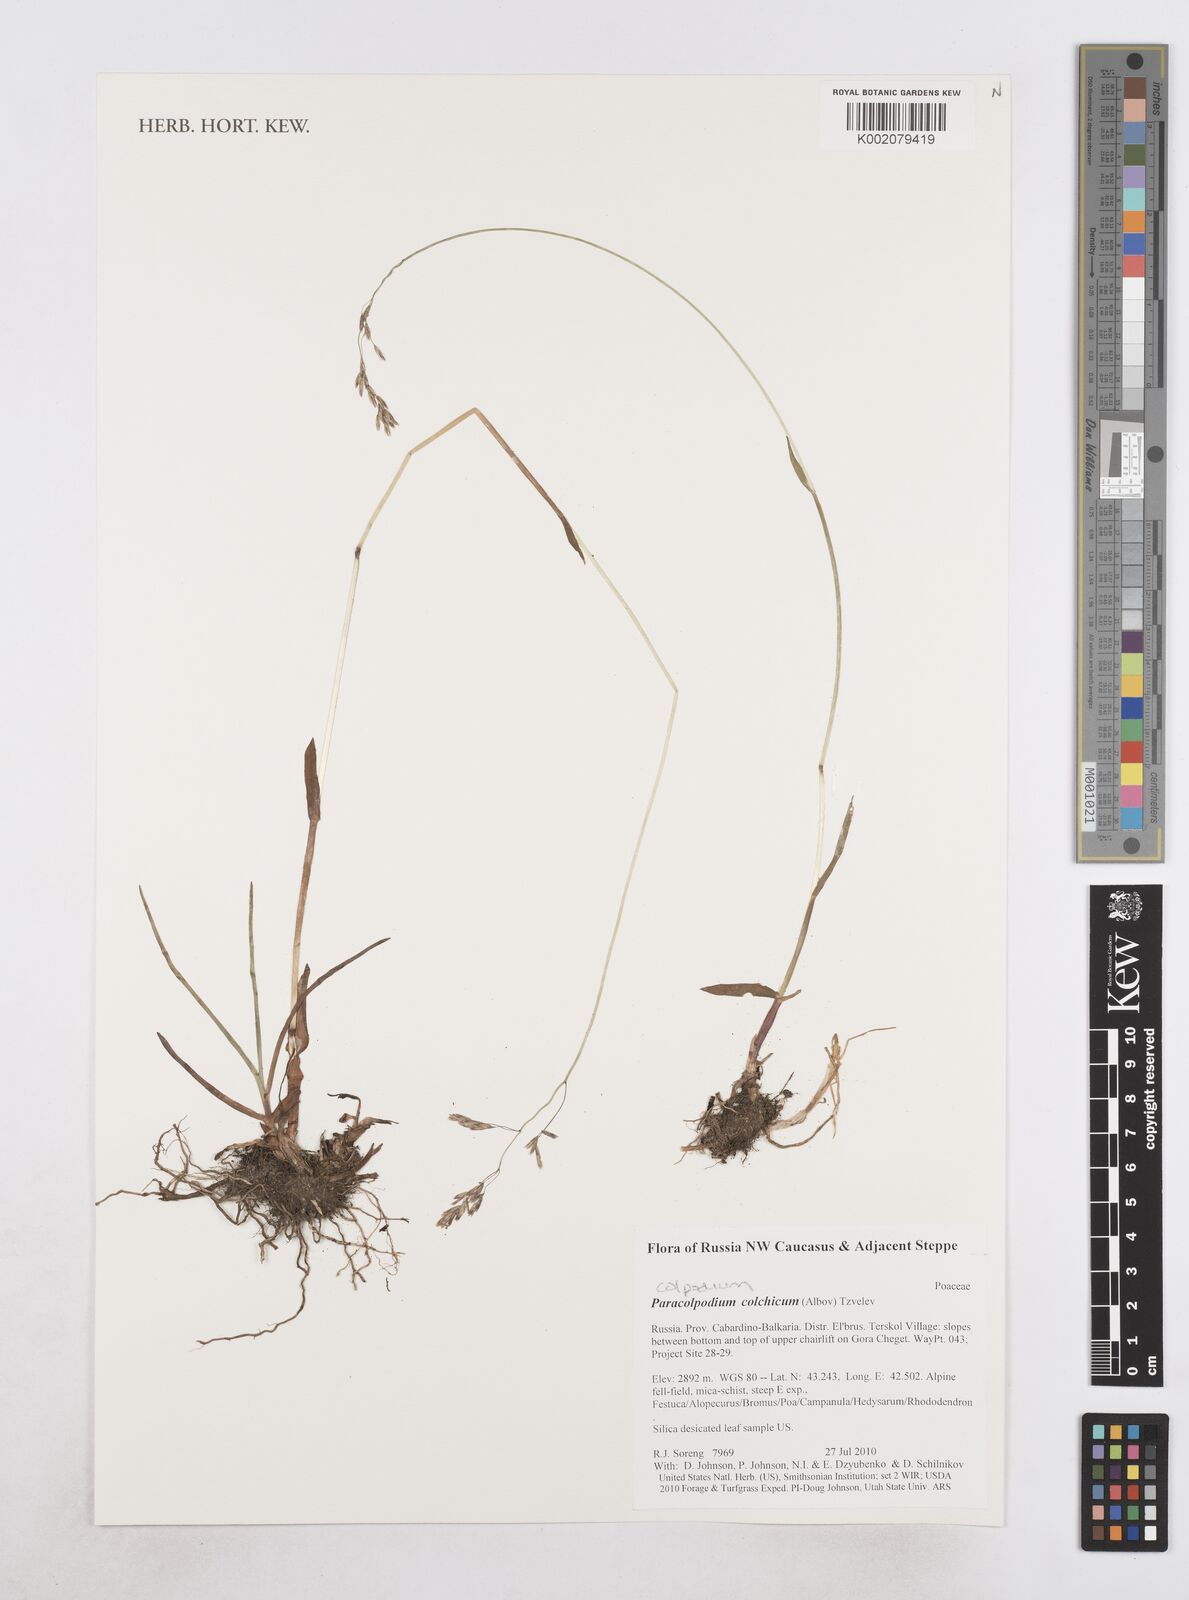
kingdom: Plantae
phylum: Tracheophyta
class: Liliopsida
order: Poales
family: Poaceae
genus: Paracolpodium
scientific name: Paracolpodium colchicum
